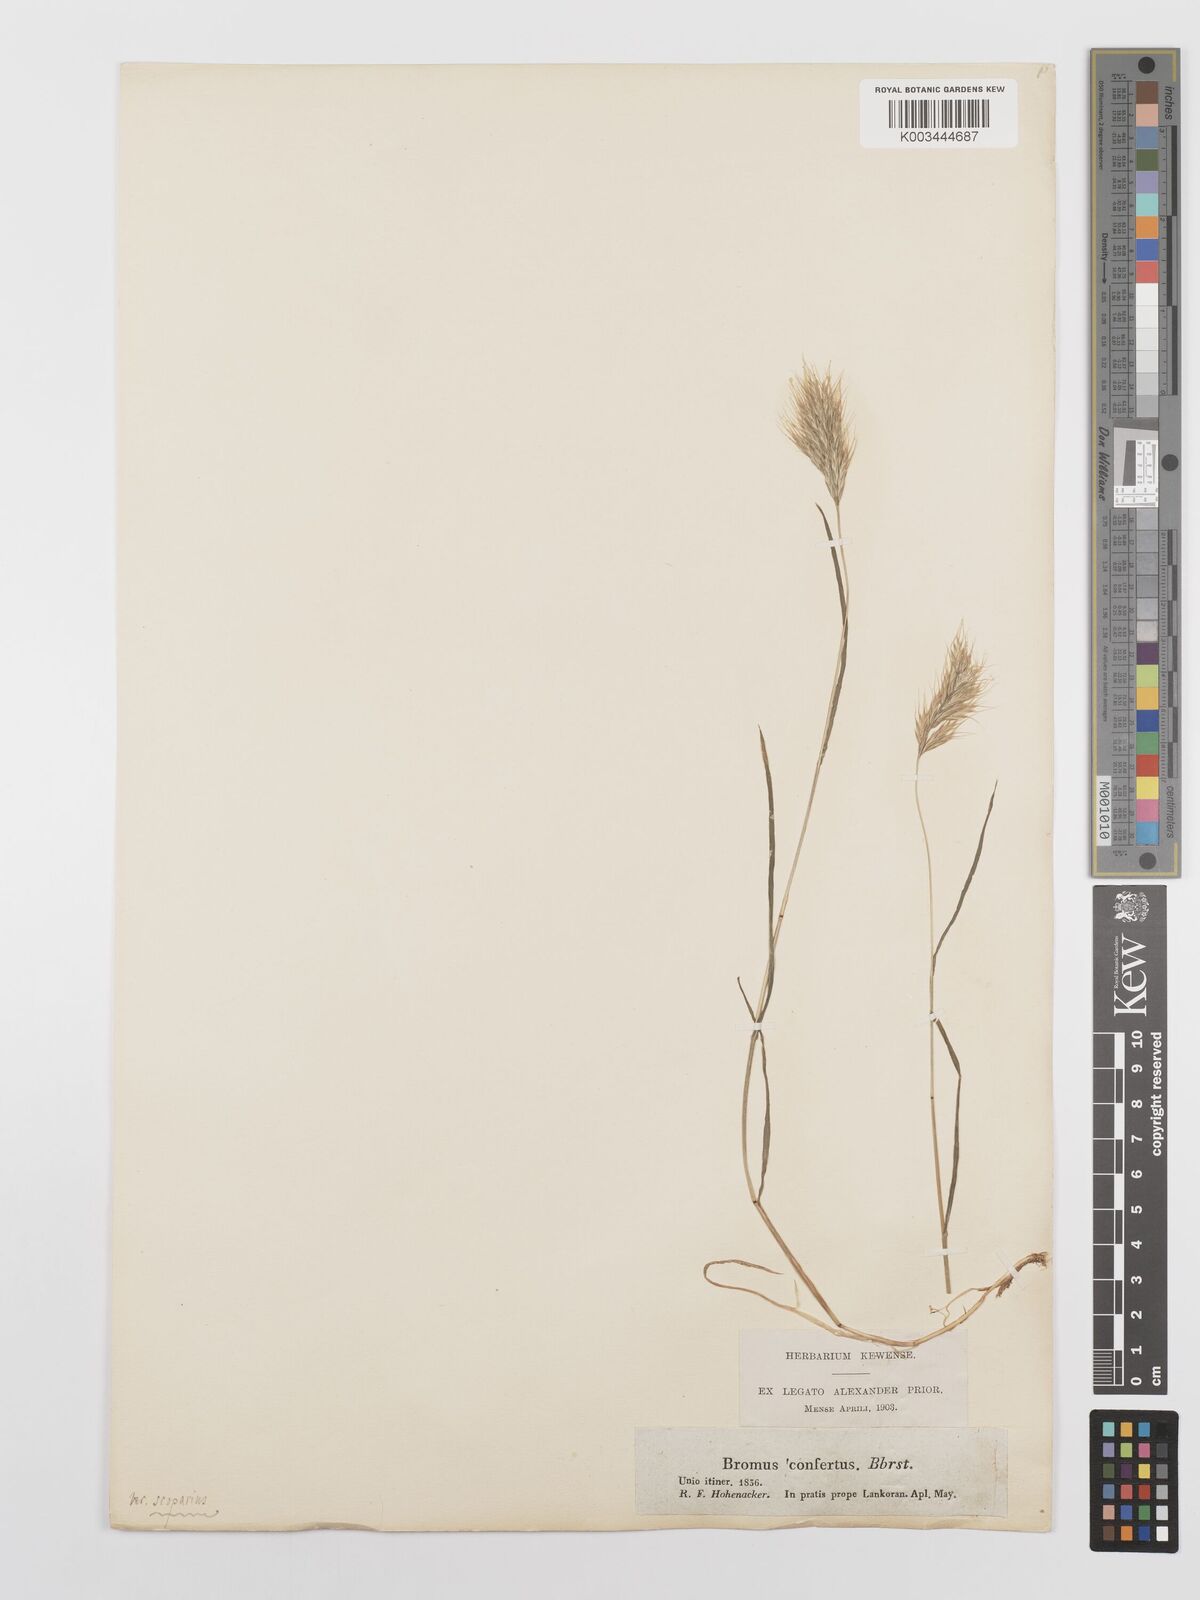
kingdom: Plantae
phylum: Tracheophyta
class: Liliopsida
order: Poales
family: Poaceae
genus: Bromus
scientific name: Bromus scoparius
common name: Broom brome
